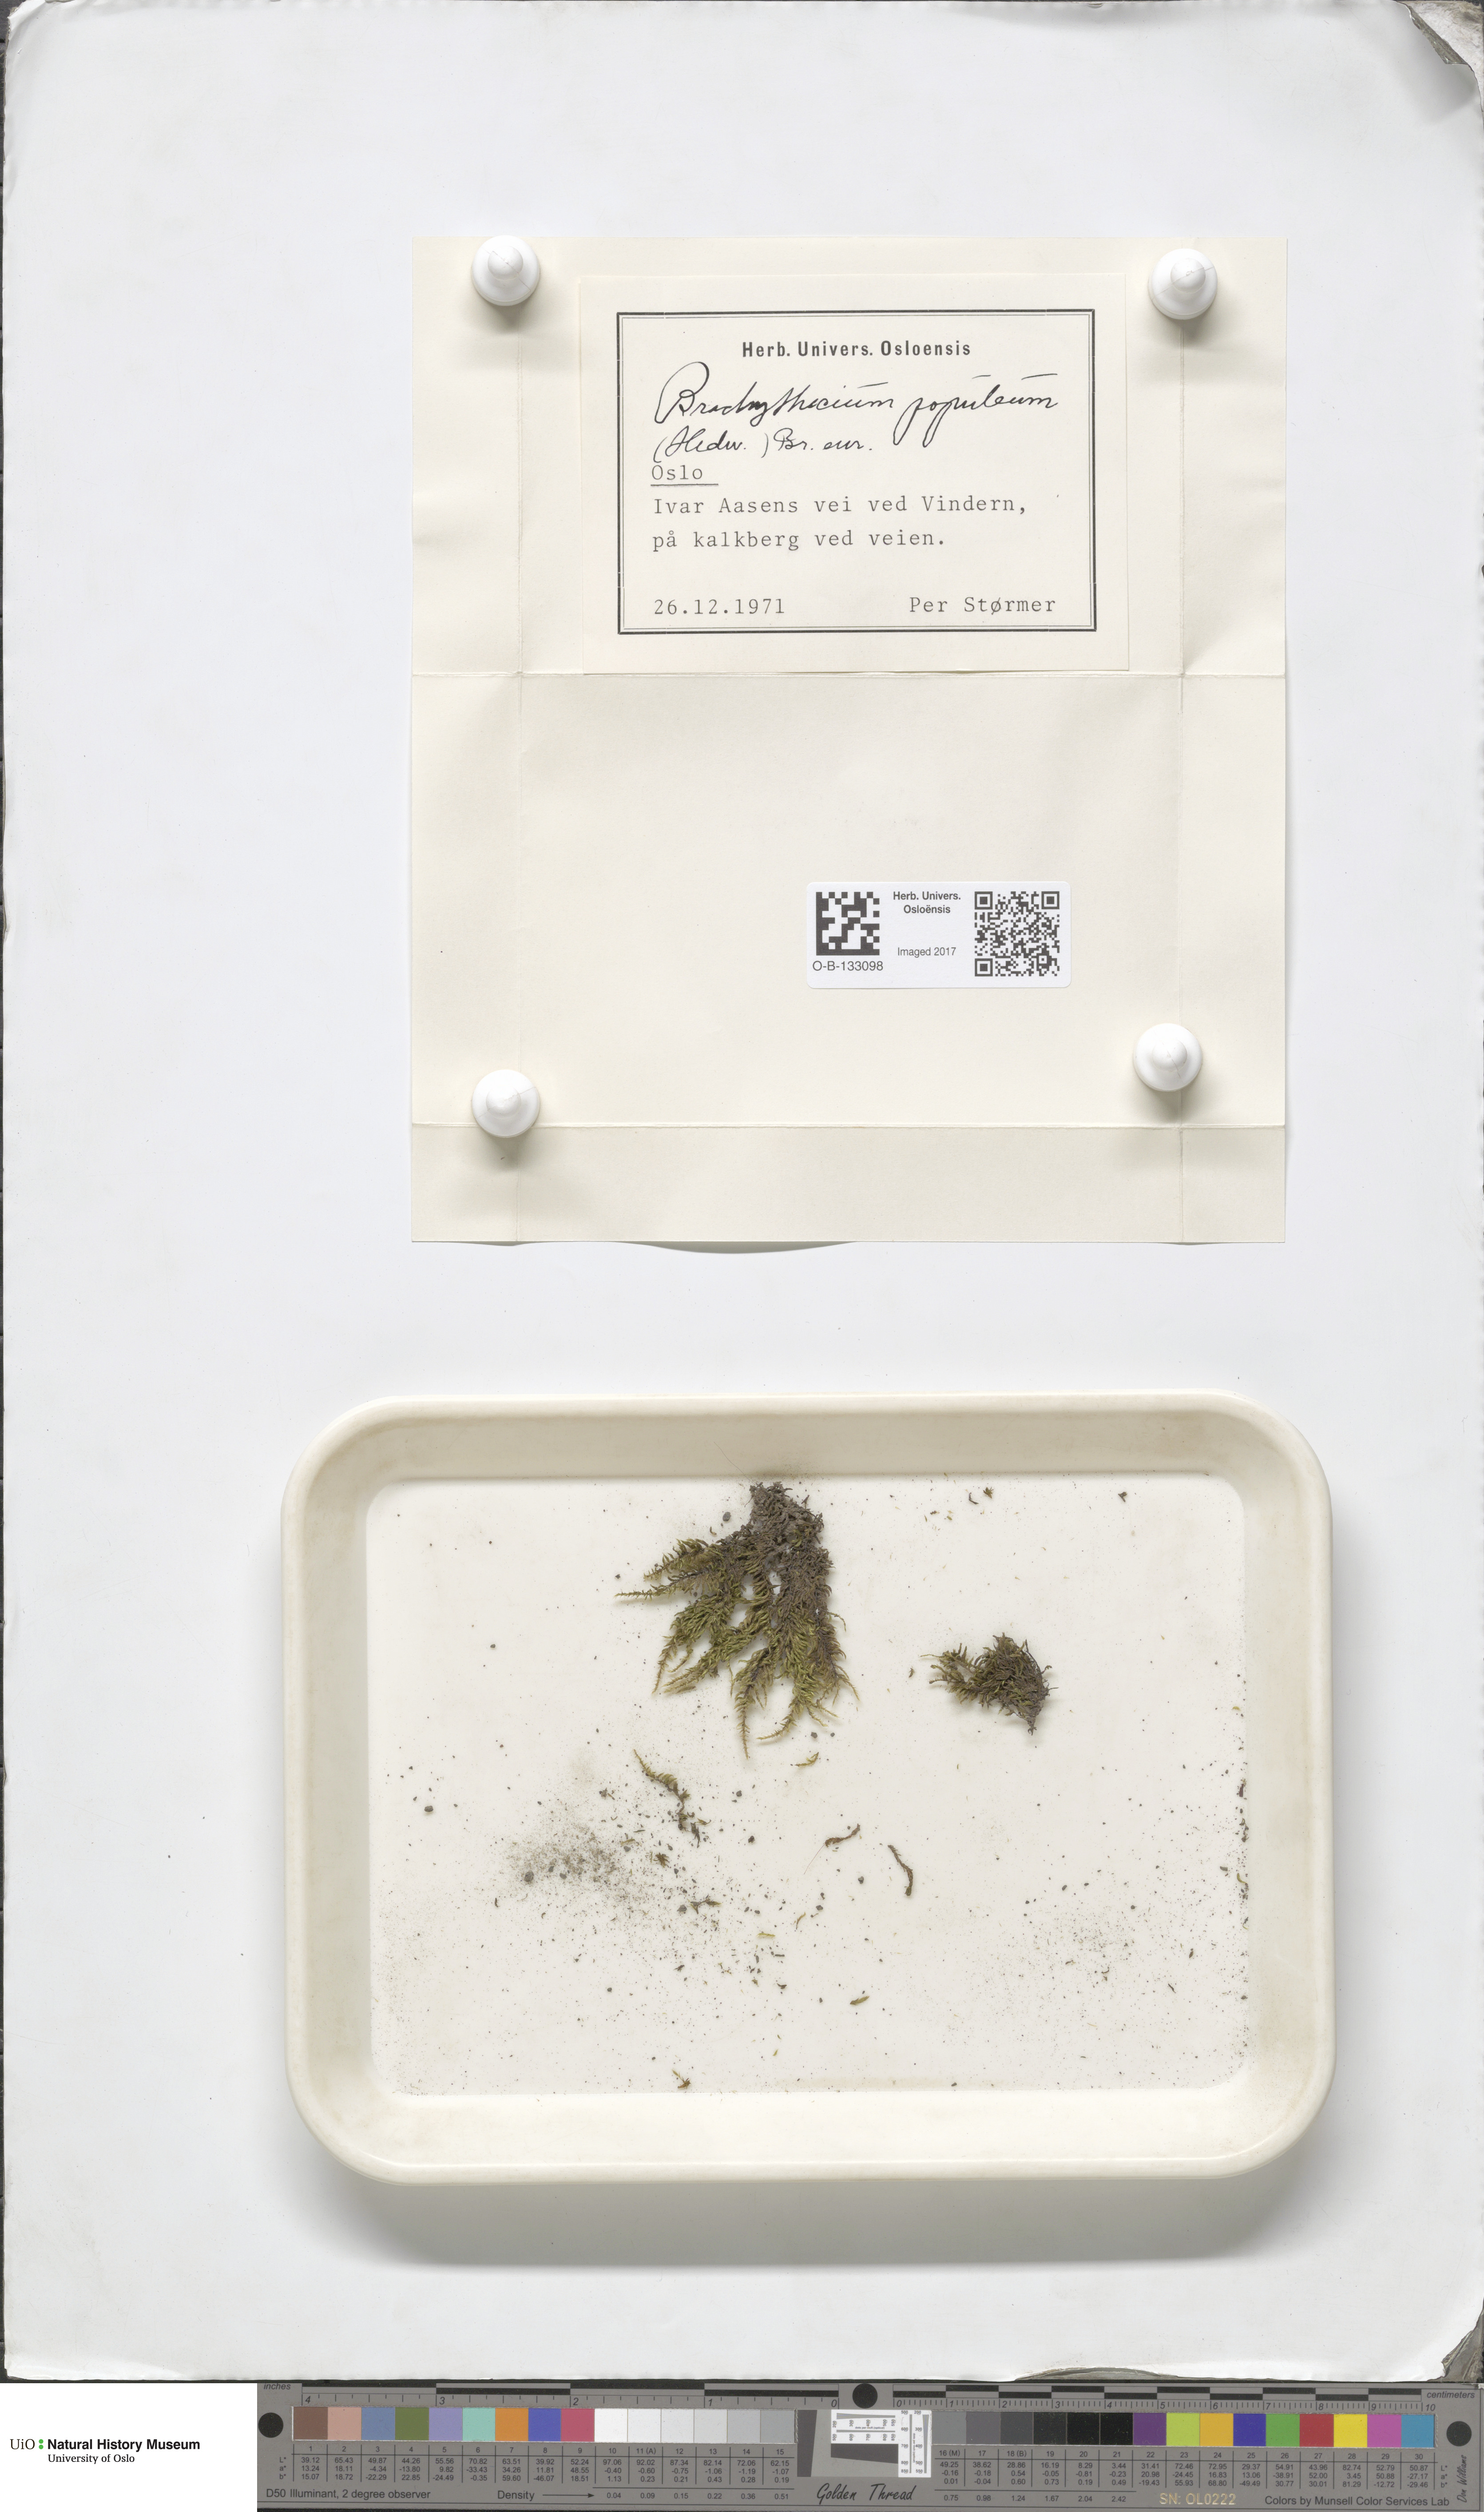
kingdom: Plantae
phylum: Bryophyta
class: Bryopsida
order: Hypnales
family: Brachytheciaceae
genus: Sciuro-hypnum
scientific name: Sciuro-hypnum plumosum
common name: Rusty feather-moss
